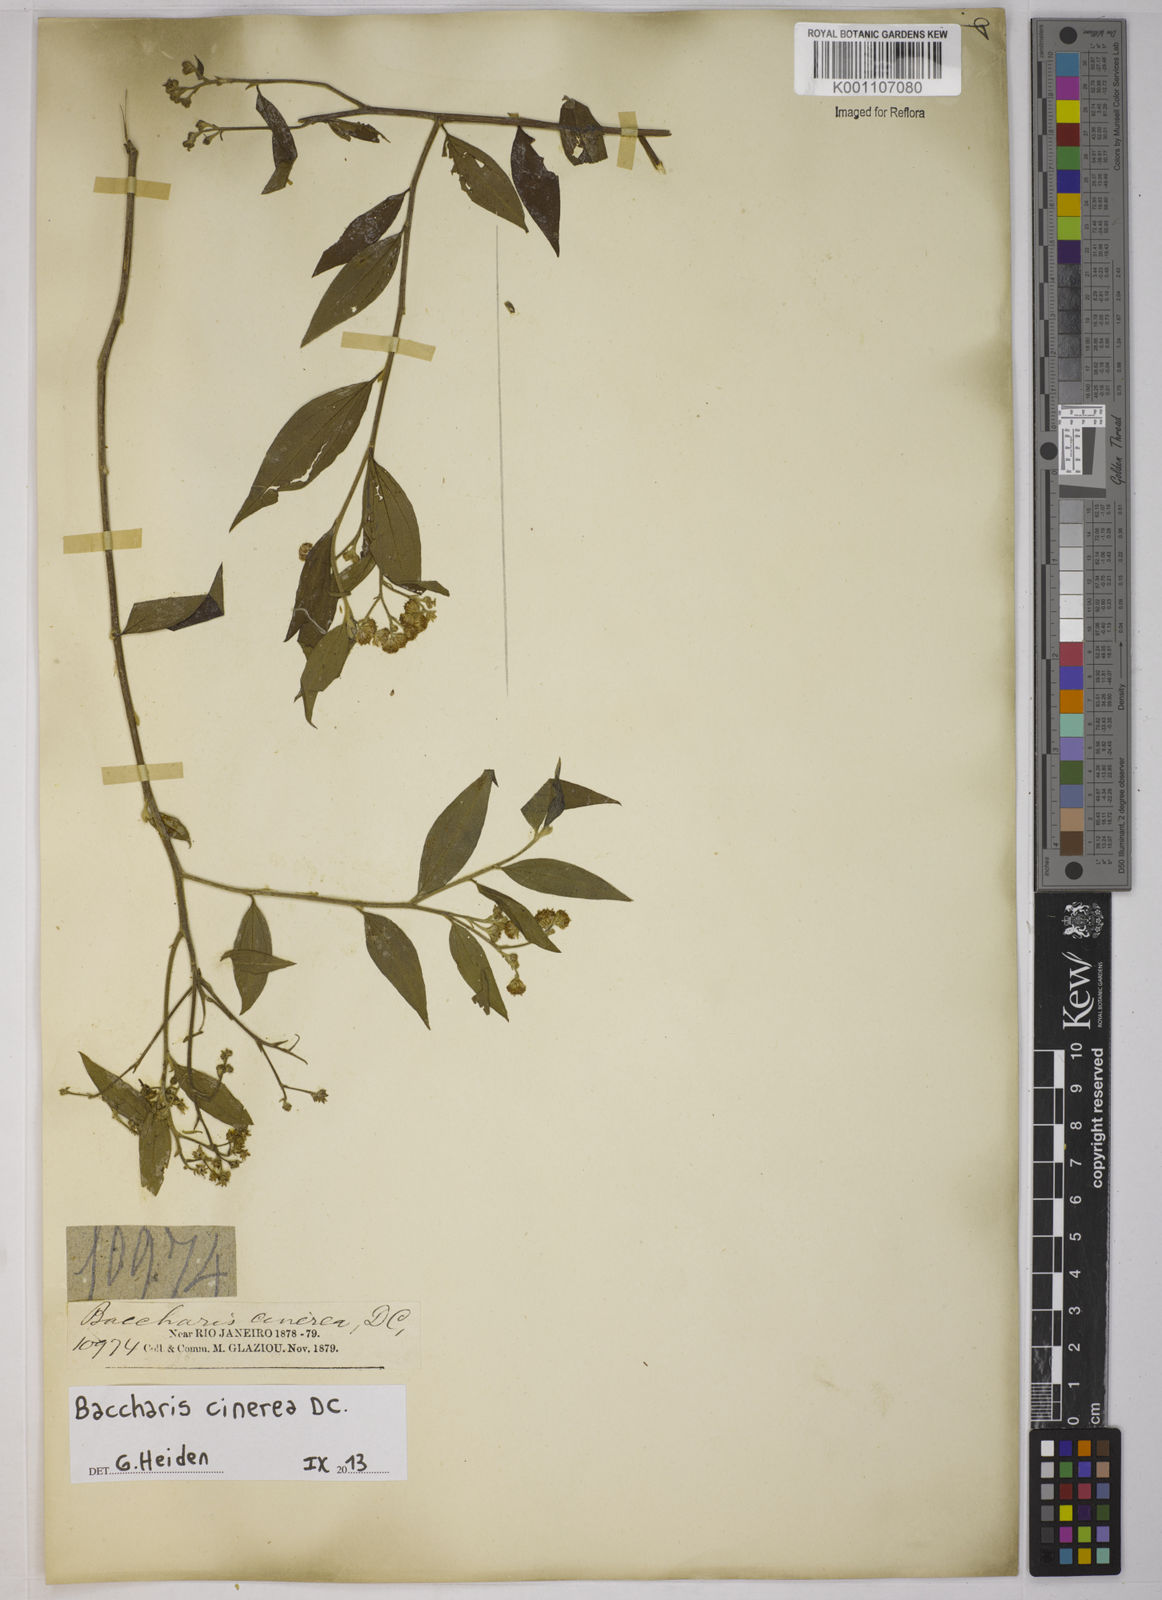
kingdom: Plantae
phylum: Tracheophyta
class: Magnoliopsida
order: Asterales
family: Asteraceae
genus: Baccharis
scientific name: Baccharis trinervis
